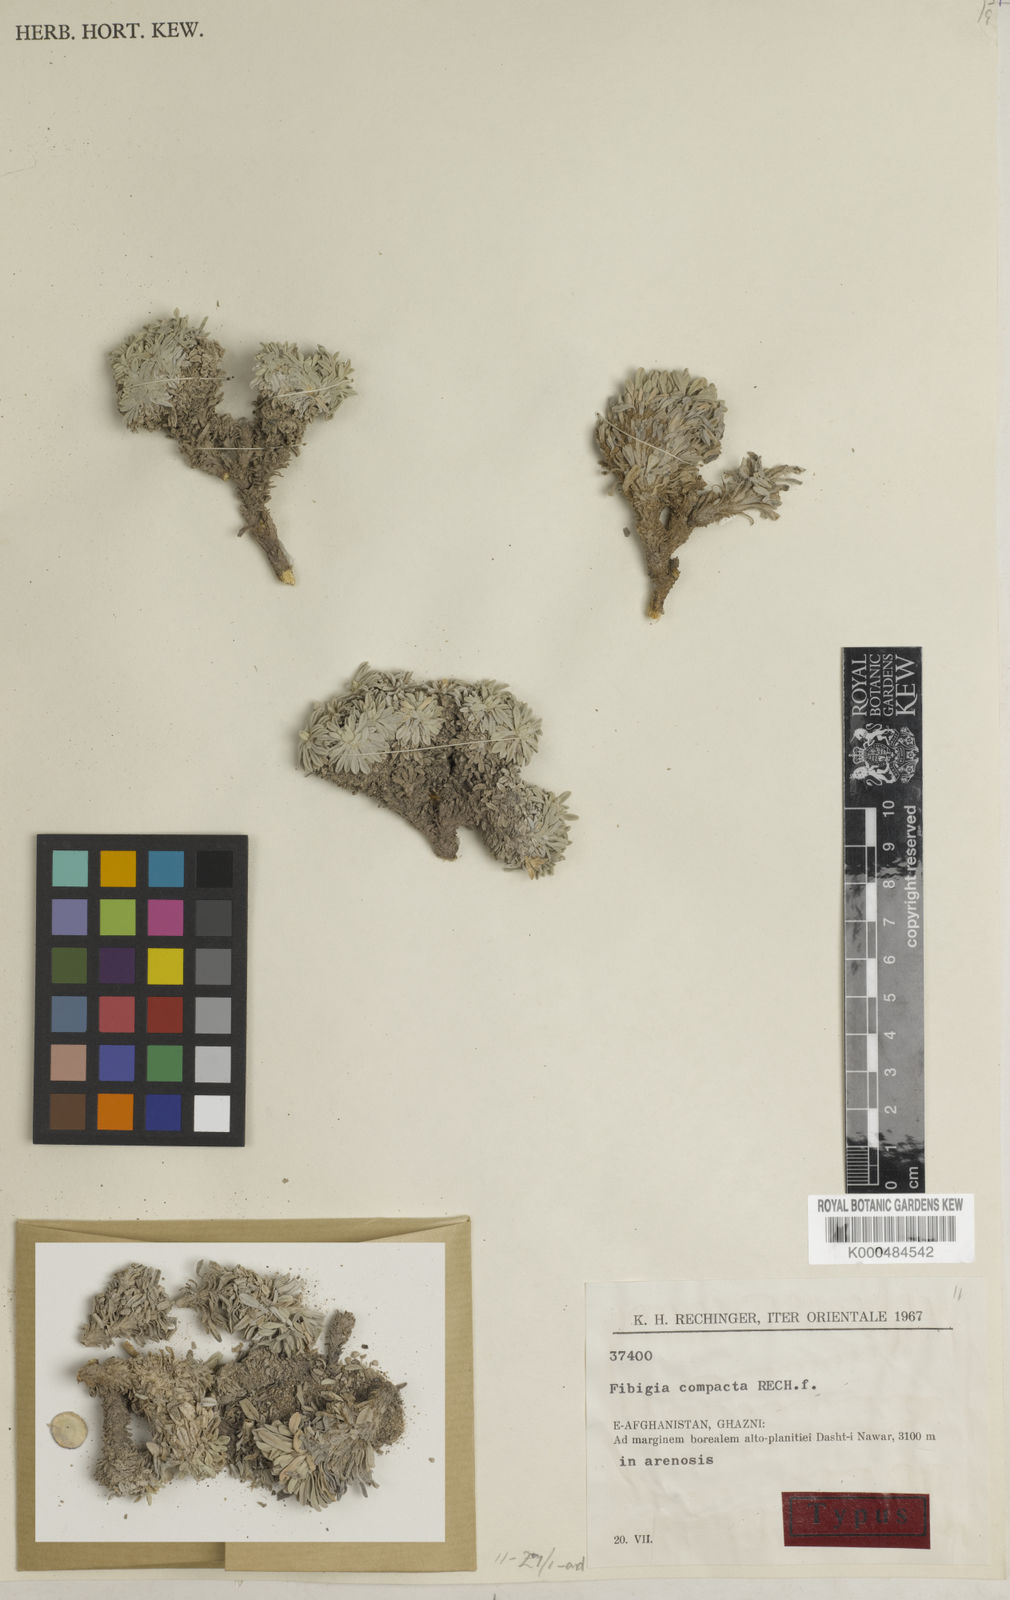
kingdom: Plantae
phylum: Tracheophyta
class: Magnoliopsida
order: Brassicales
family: Brassicaceae
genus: Irania
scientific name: Irania compacta
